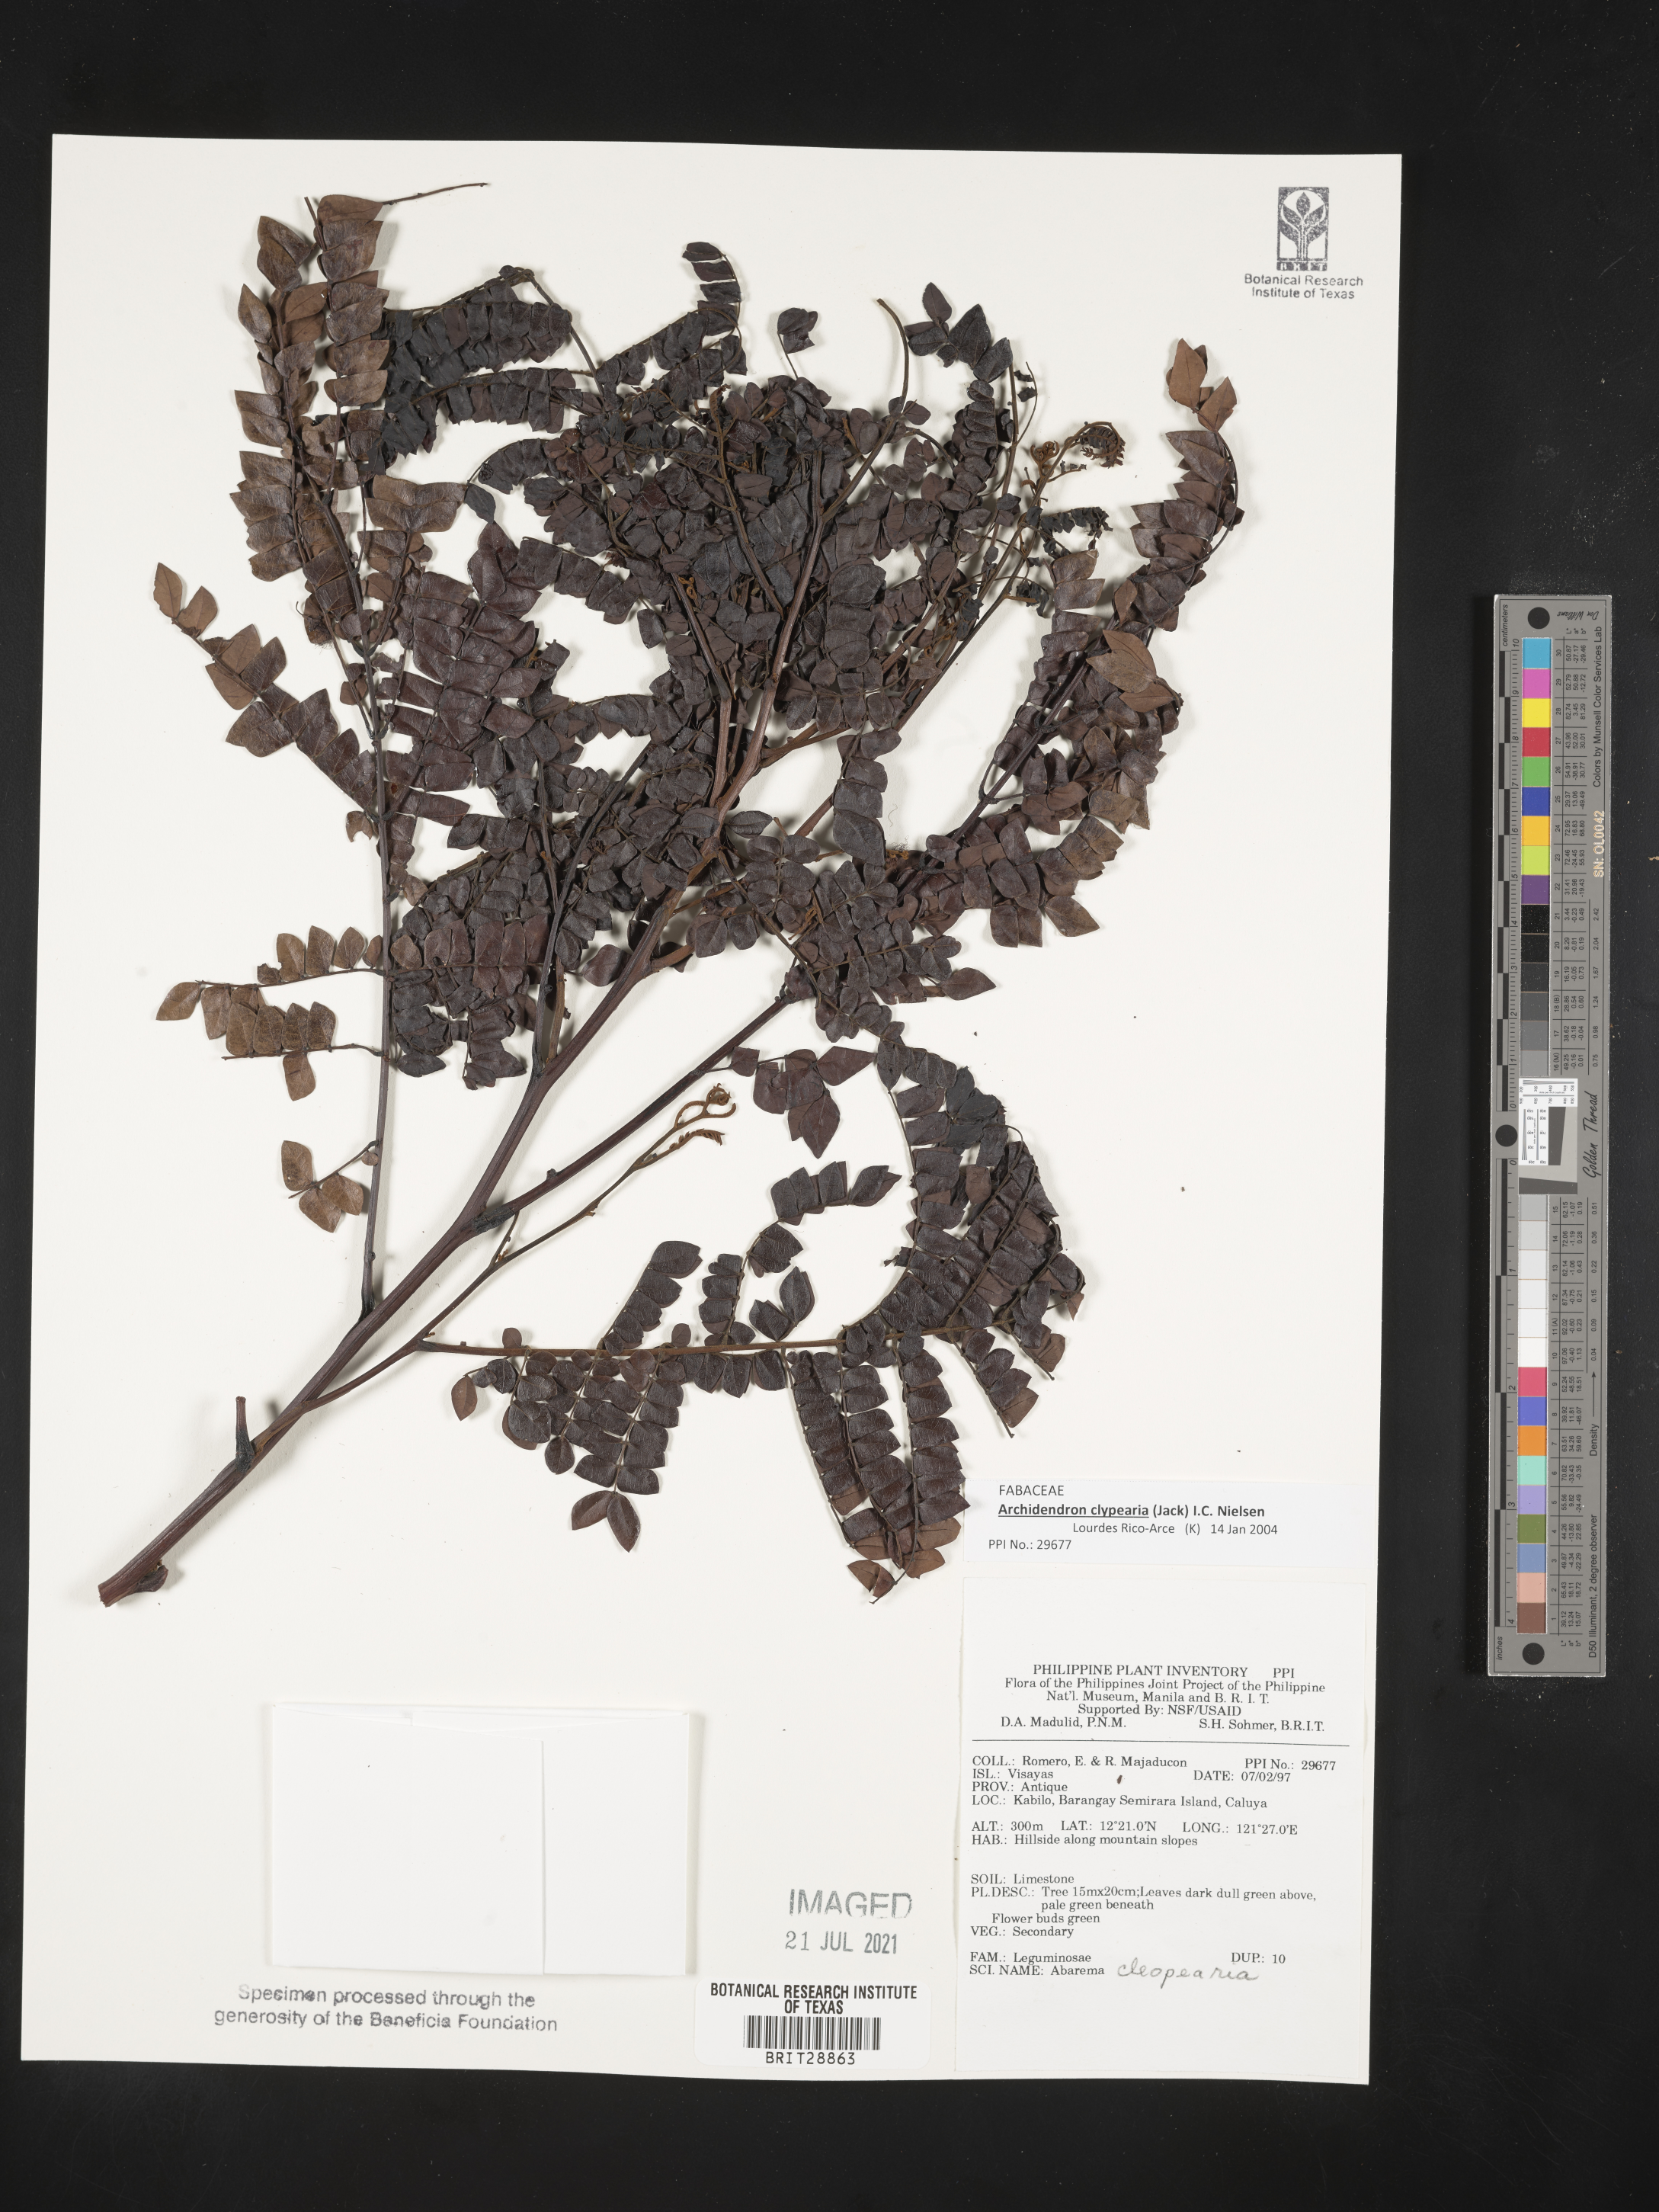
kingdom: Plantae
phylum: Tracheophyta
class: Magnoliopsida
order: Fabales
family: Fabaceae
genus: Archidendron
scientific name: Archidendron clypearia
